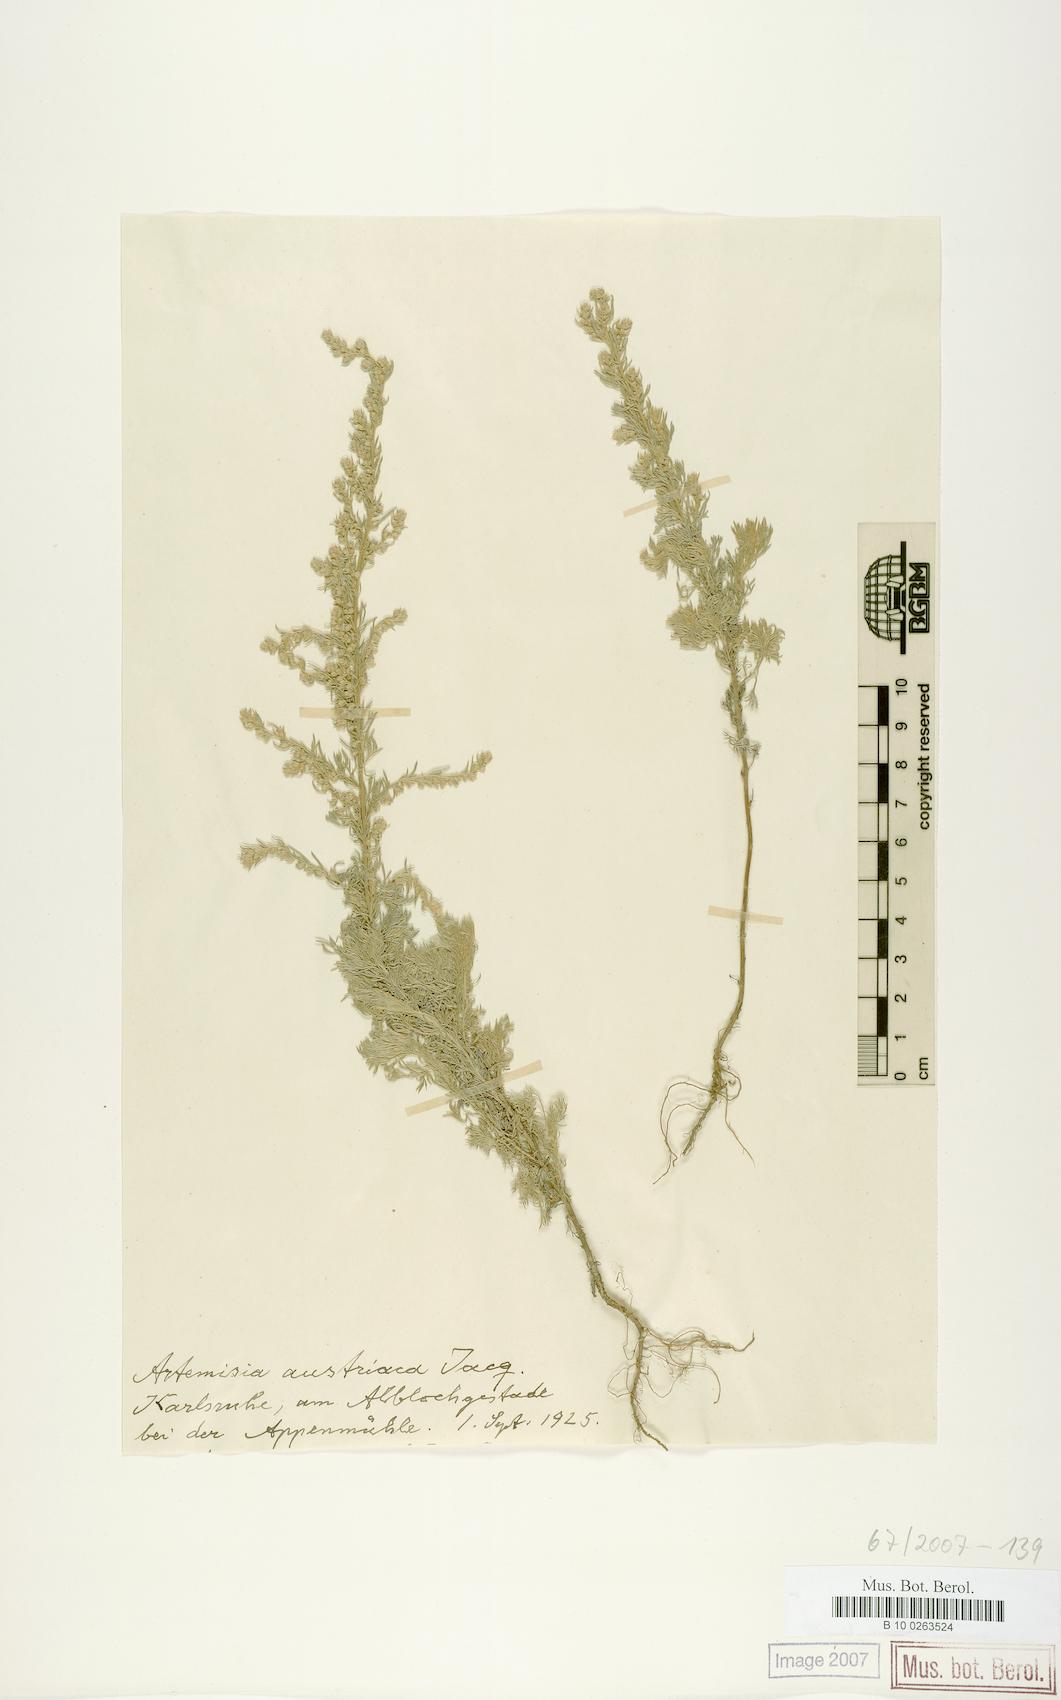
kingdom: Plantae
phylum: Tracheophyta
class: Magnoliopsida
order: Asterales
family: Asteraceae
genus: Artemisia
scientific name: Artemisia austriaca
